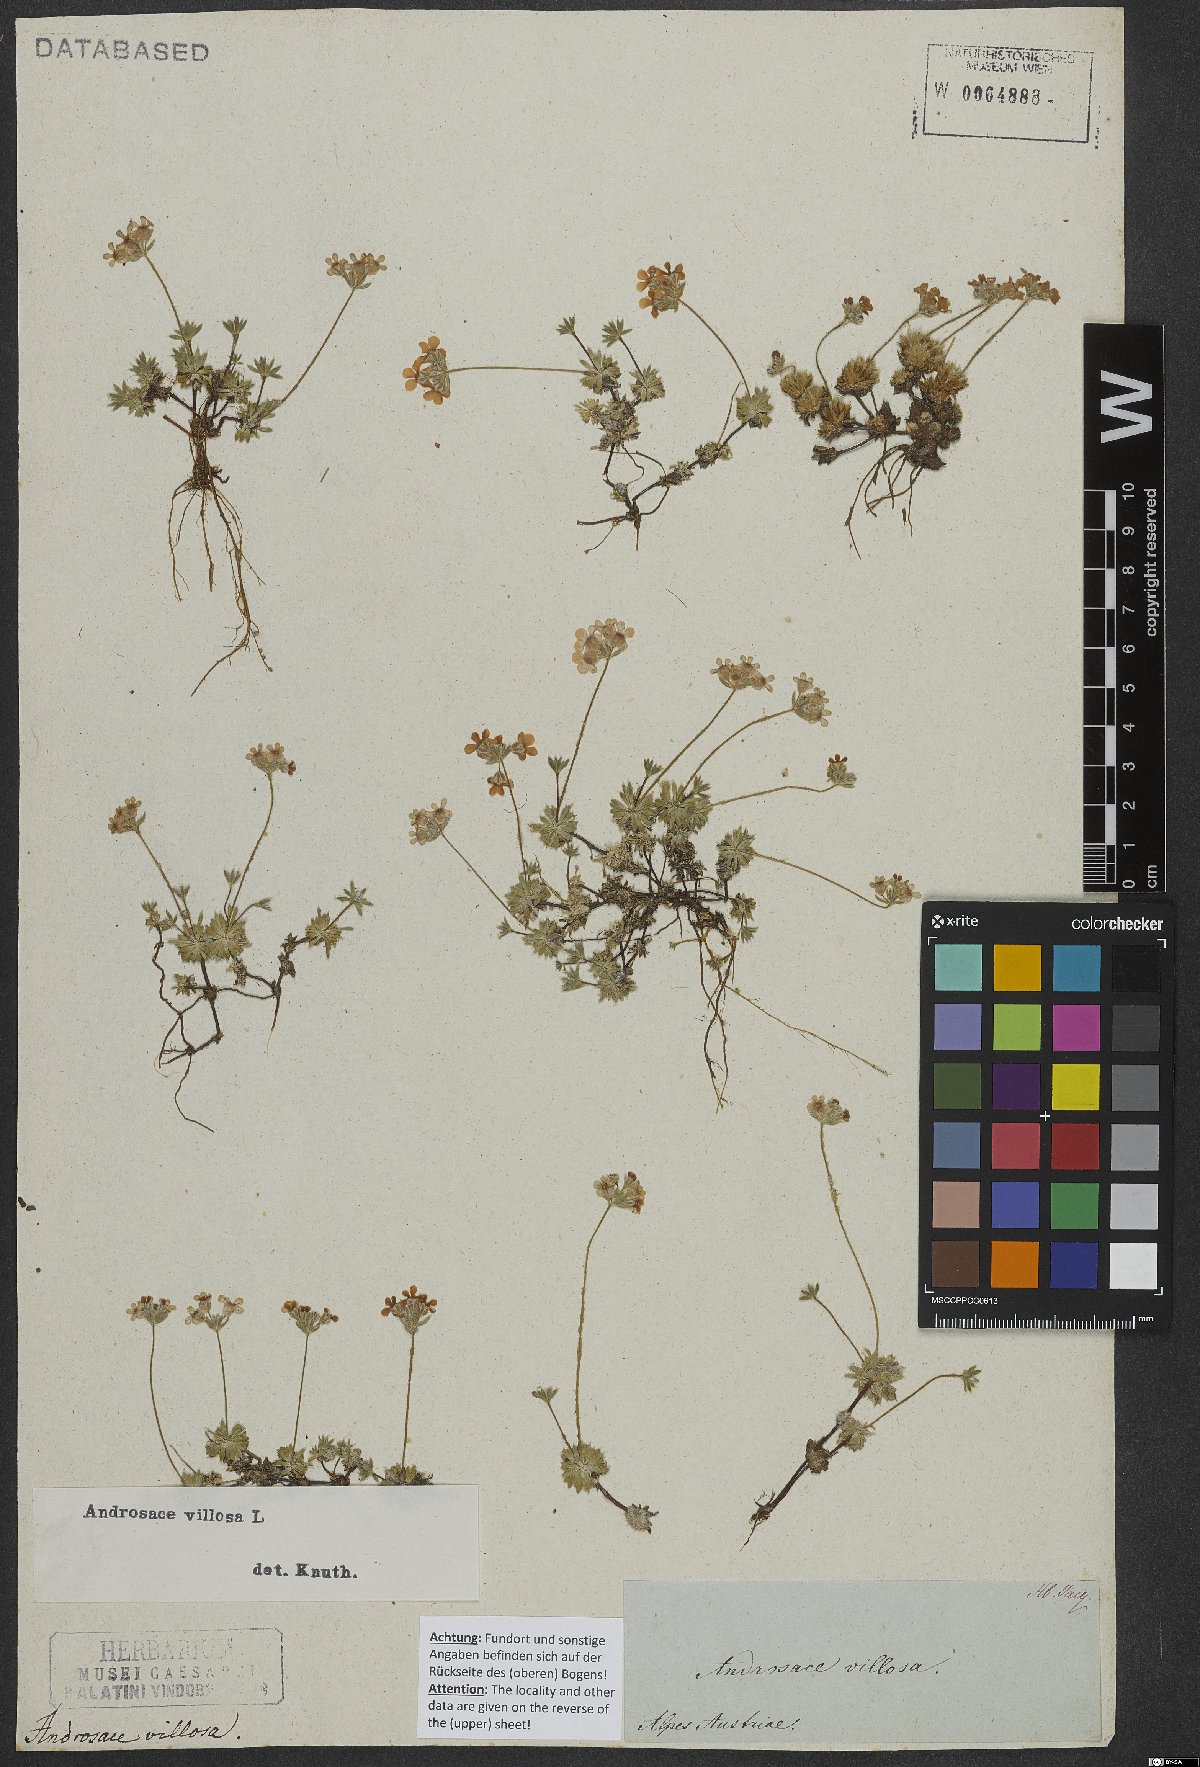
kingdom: Plantae
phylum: Tracheophyta
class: Magnoliopsida
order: Ericales
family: Primulaceae
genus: Androsace
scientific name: Androsace villosa
